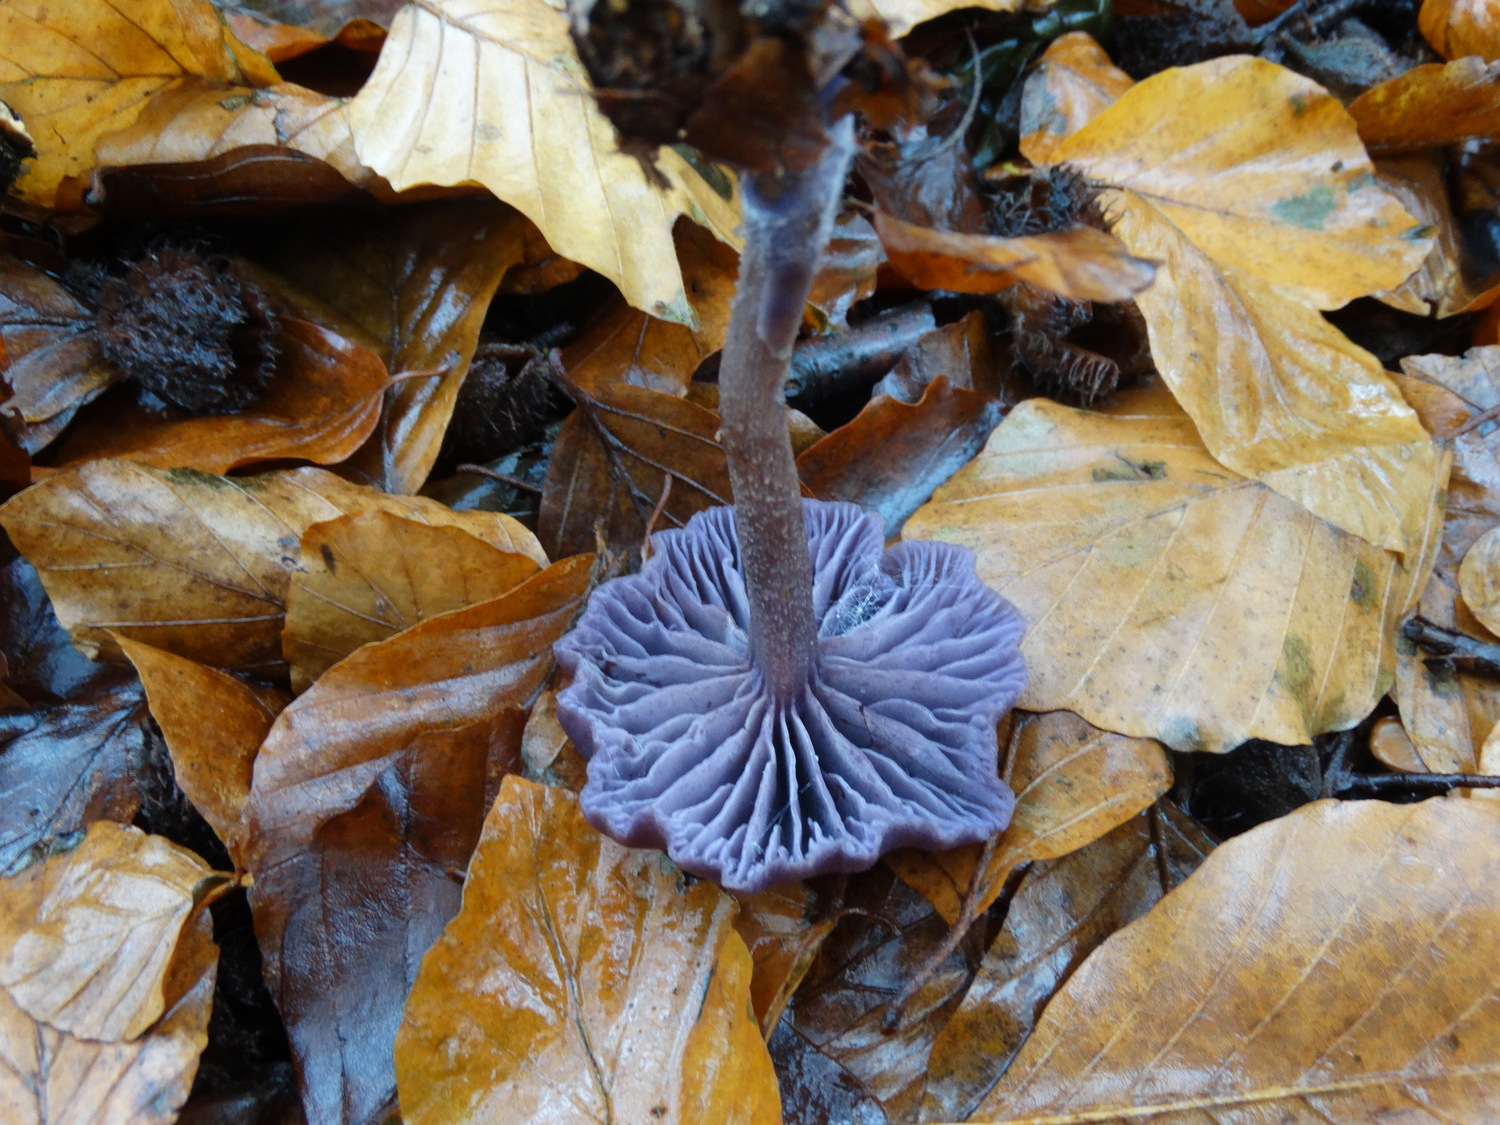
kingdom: Fungi
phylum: Basidiomycota
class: Agaricomycetes
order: Agaricales
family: Hydnangiaceae
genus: Laccaria
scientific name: Laccaria amethystina
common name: violet ametysthat
